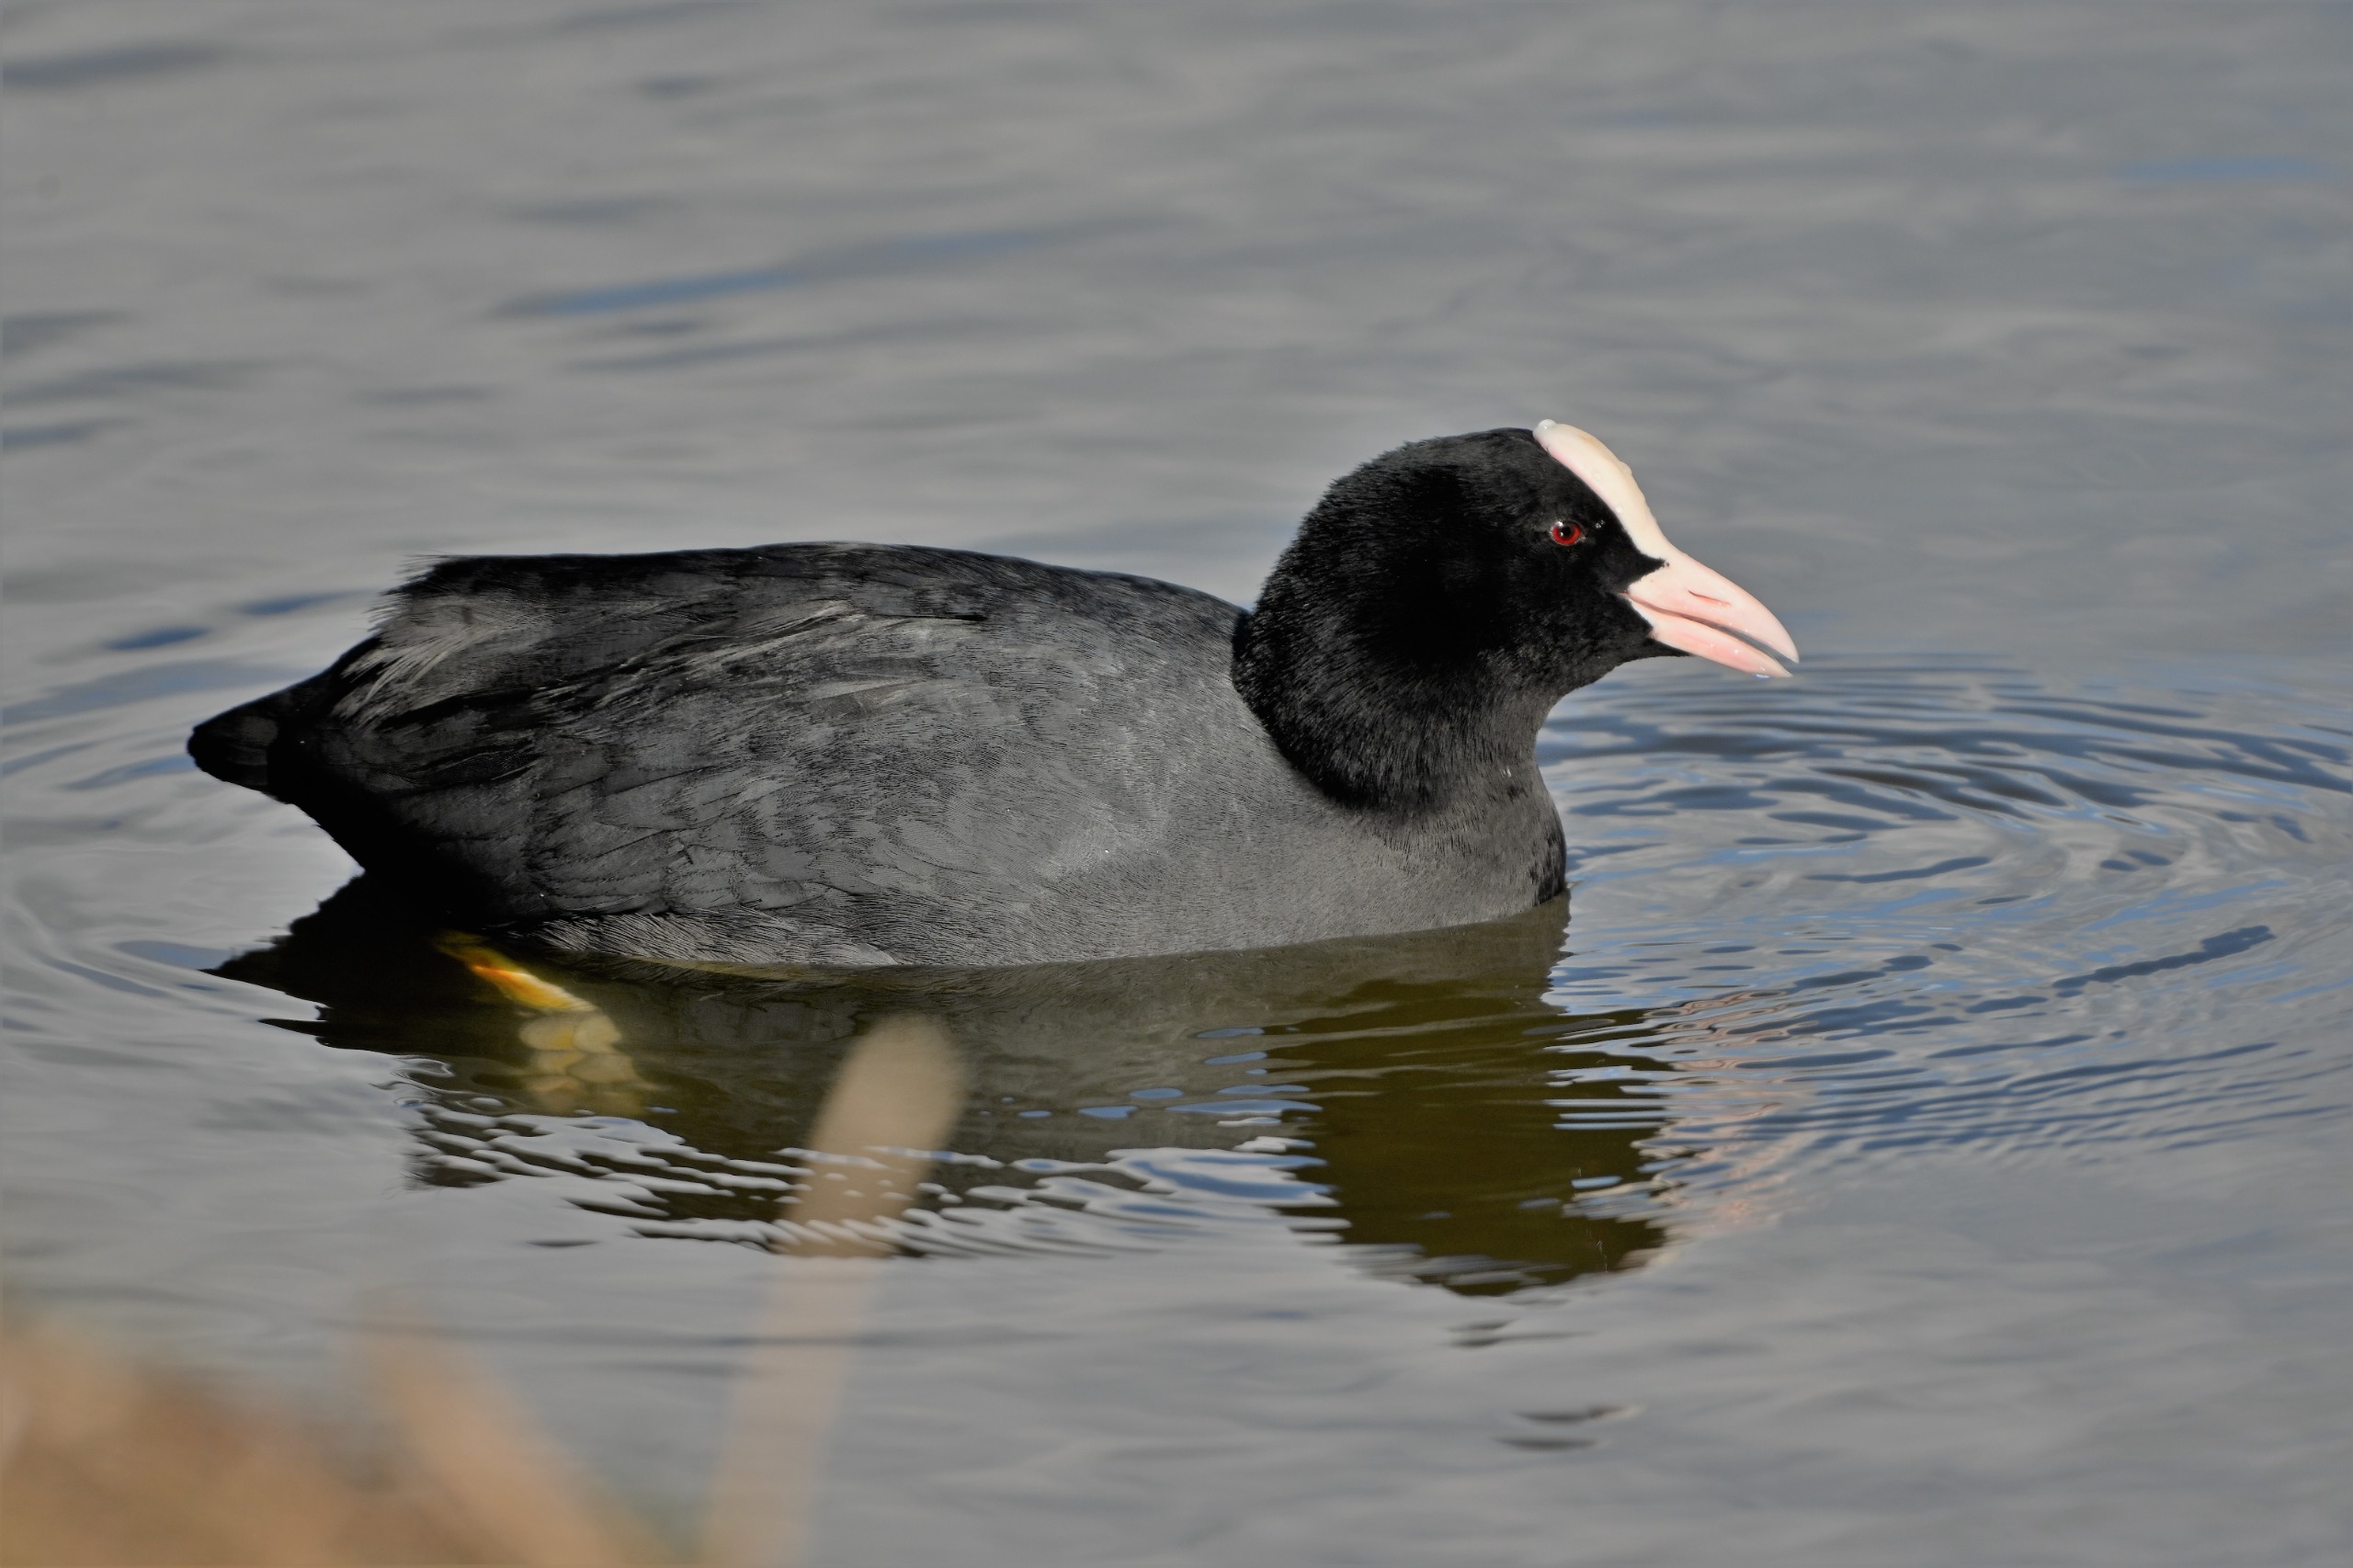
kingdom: Animalia
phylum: Chordata
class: Aves
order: Gruiformes
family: Rallidae
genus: Fulica
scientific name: Fulica atra
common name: Blishøne
